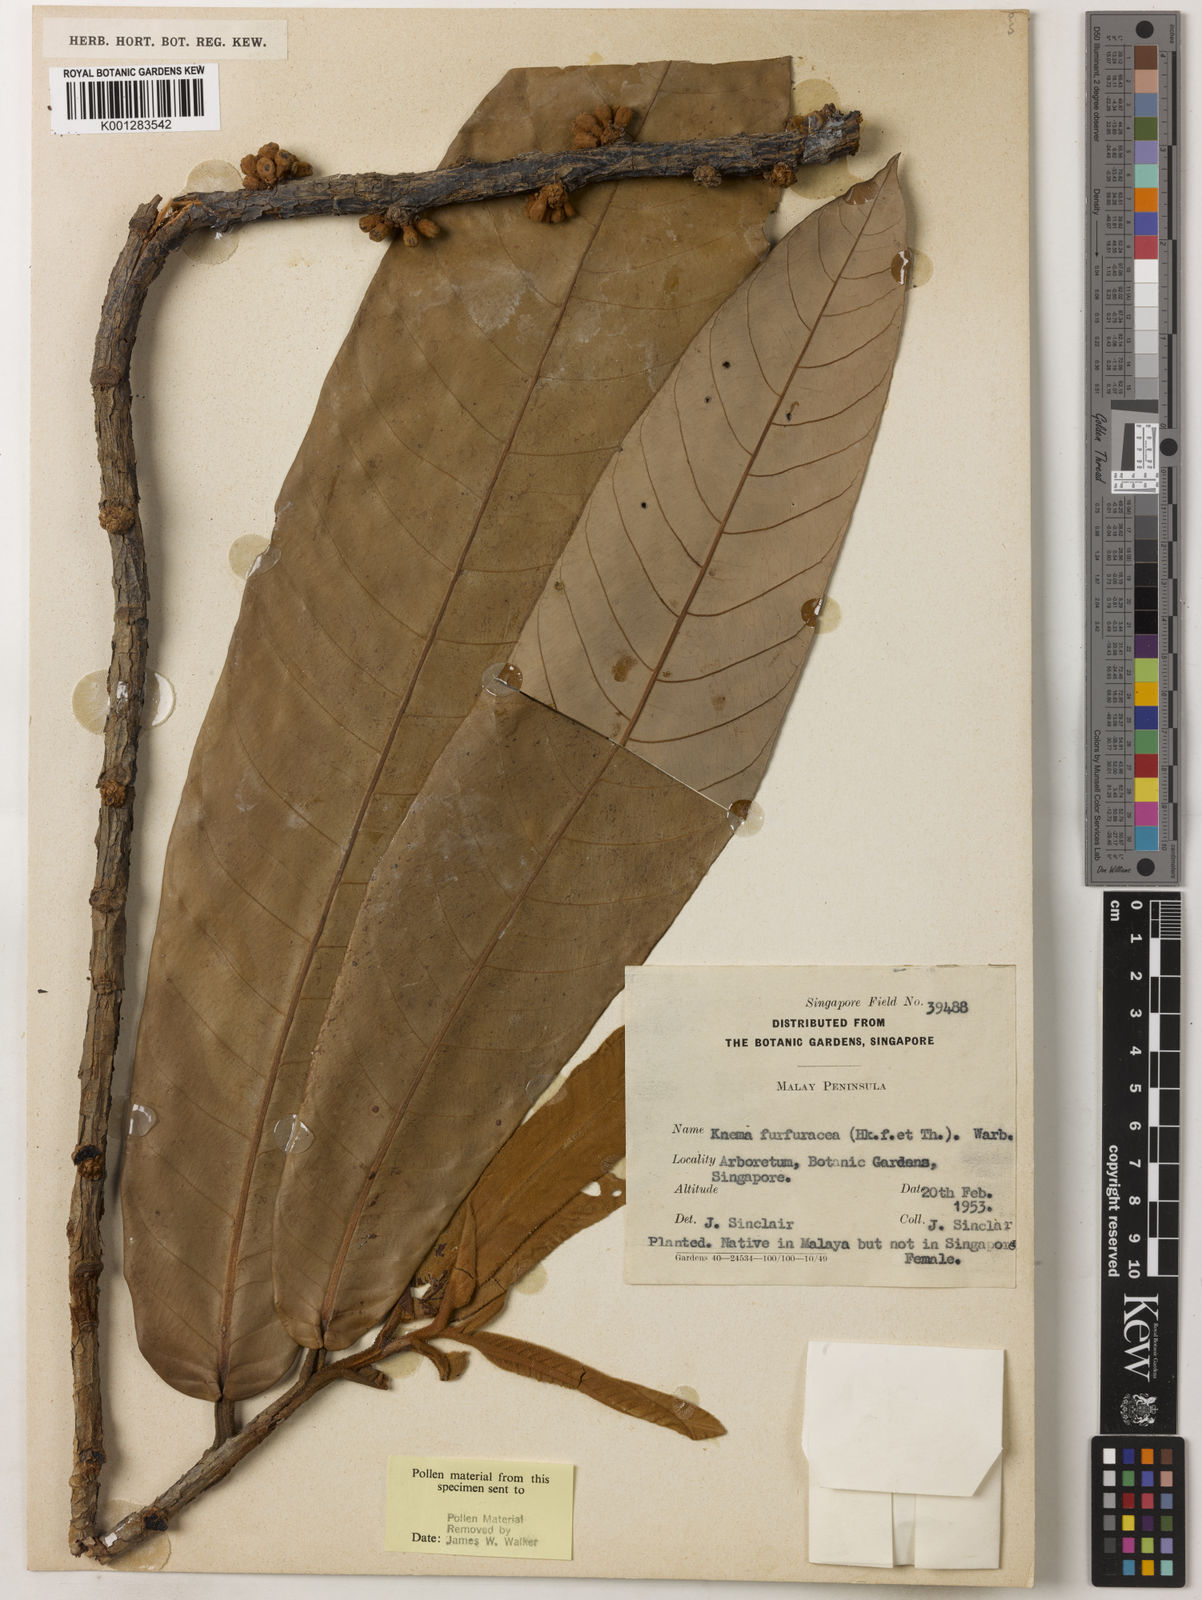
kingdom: Plantae
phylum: Tracheophyta
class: Magnoliopsida
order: Magnoliales
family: Myristicaceae
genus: Knema
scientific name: Knema furfuracea
